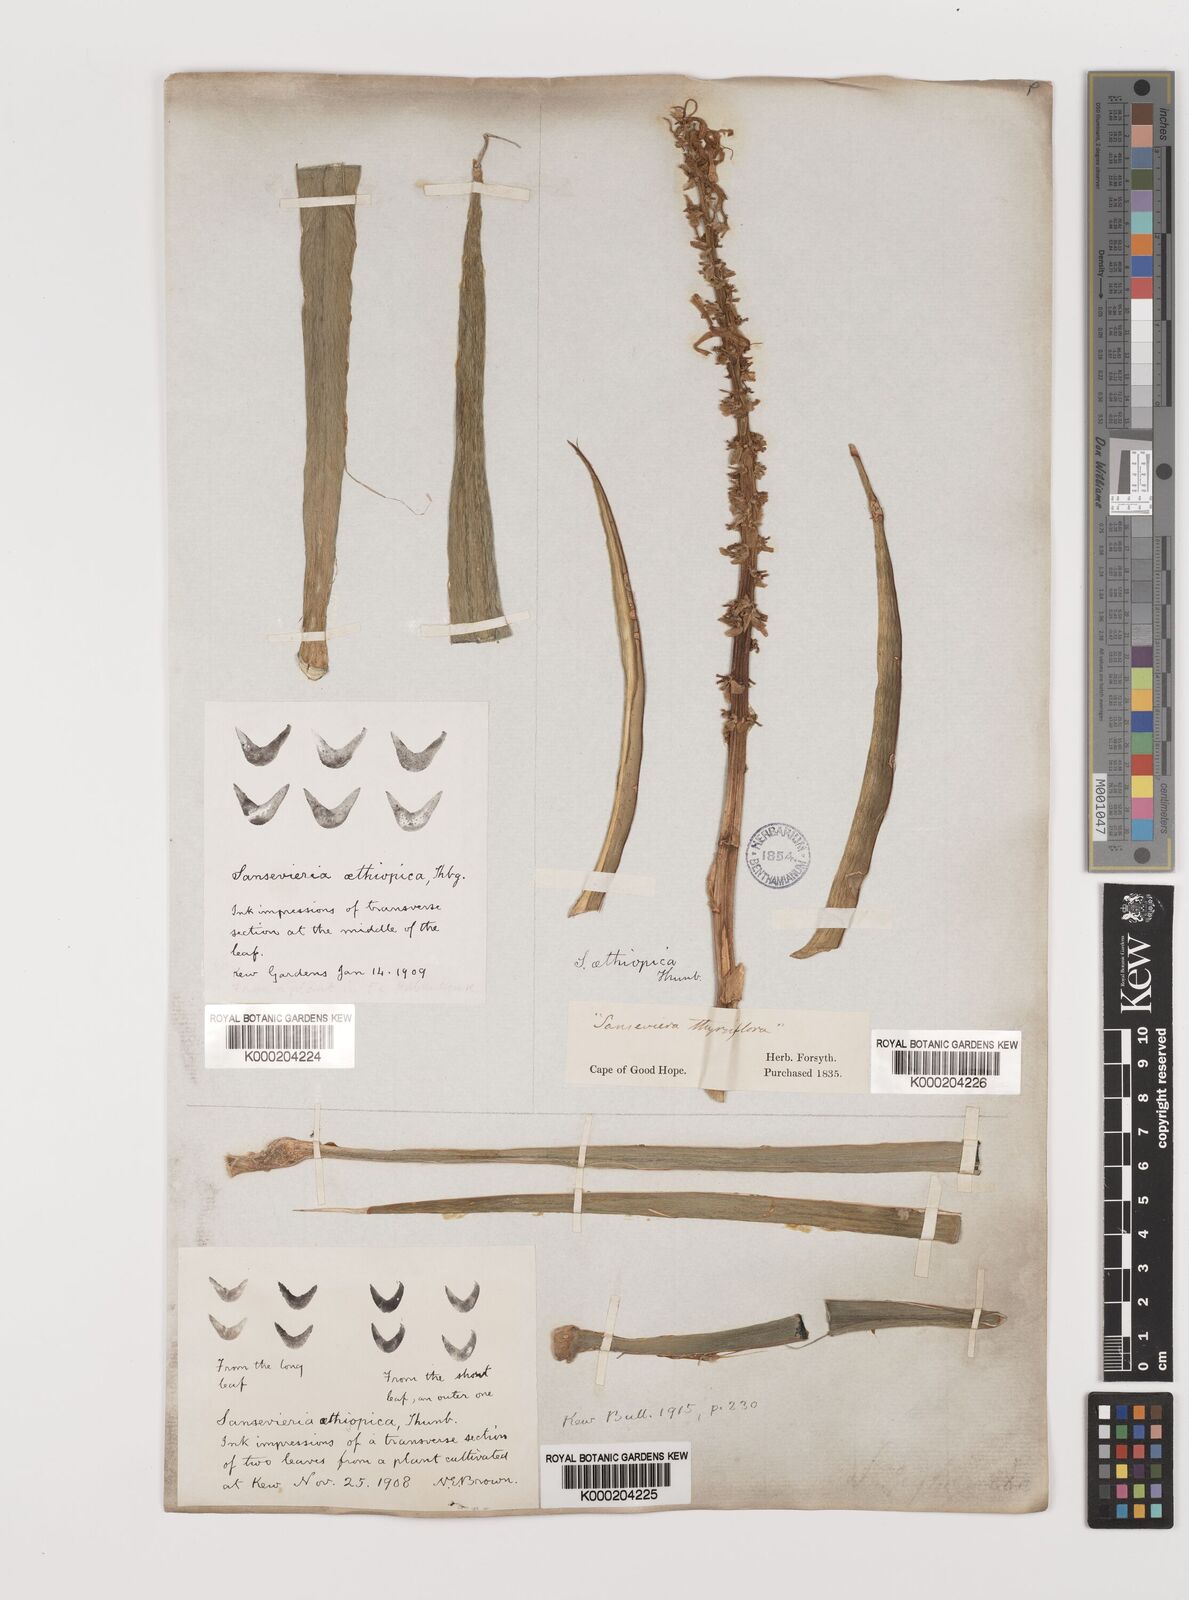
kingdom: Plantae
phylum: Tracheophyta
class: Liliopsida
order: Asparagales
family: Asparagaceae
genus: Dracaena
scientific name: Dracaena aethiopica
